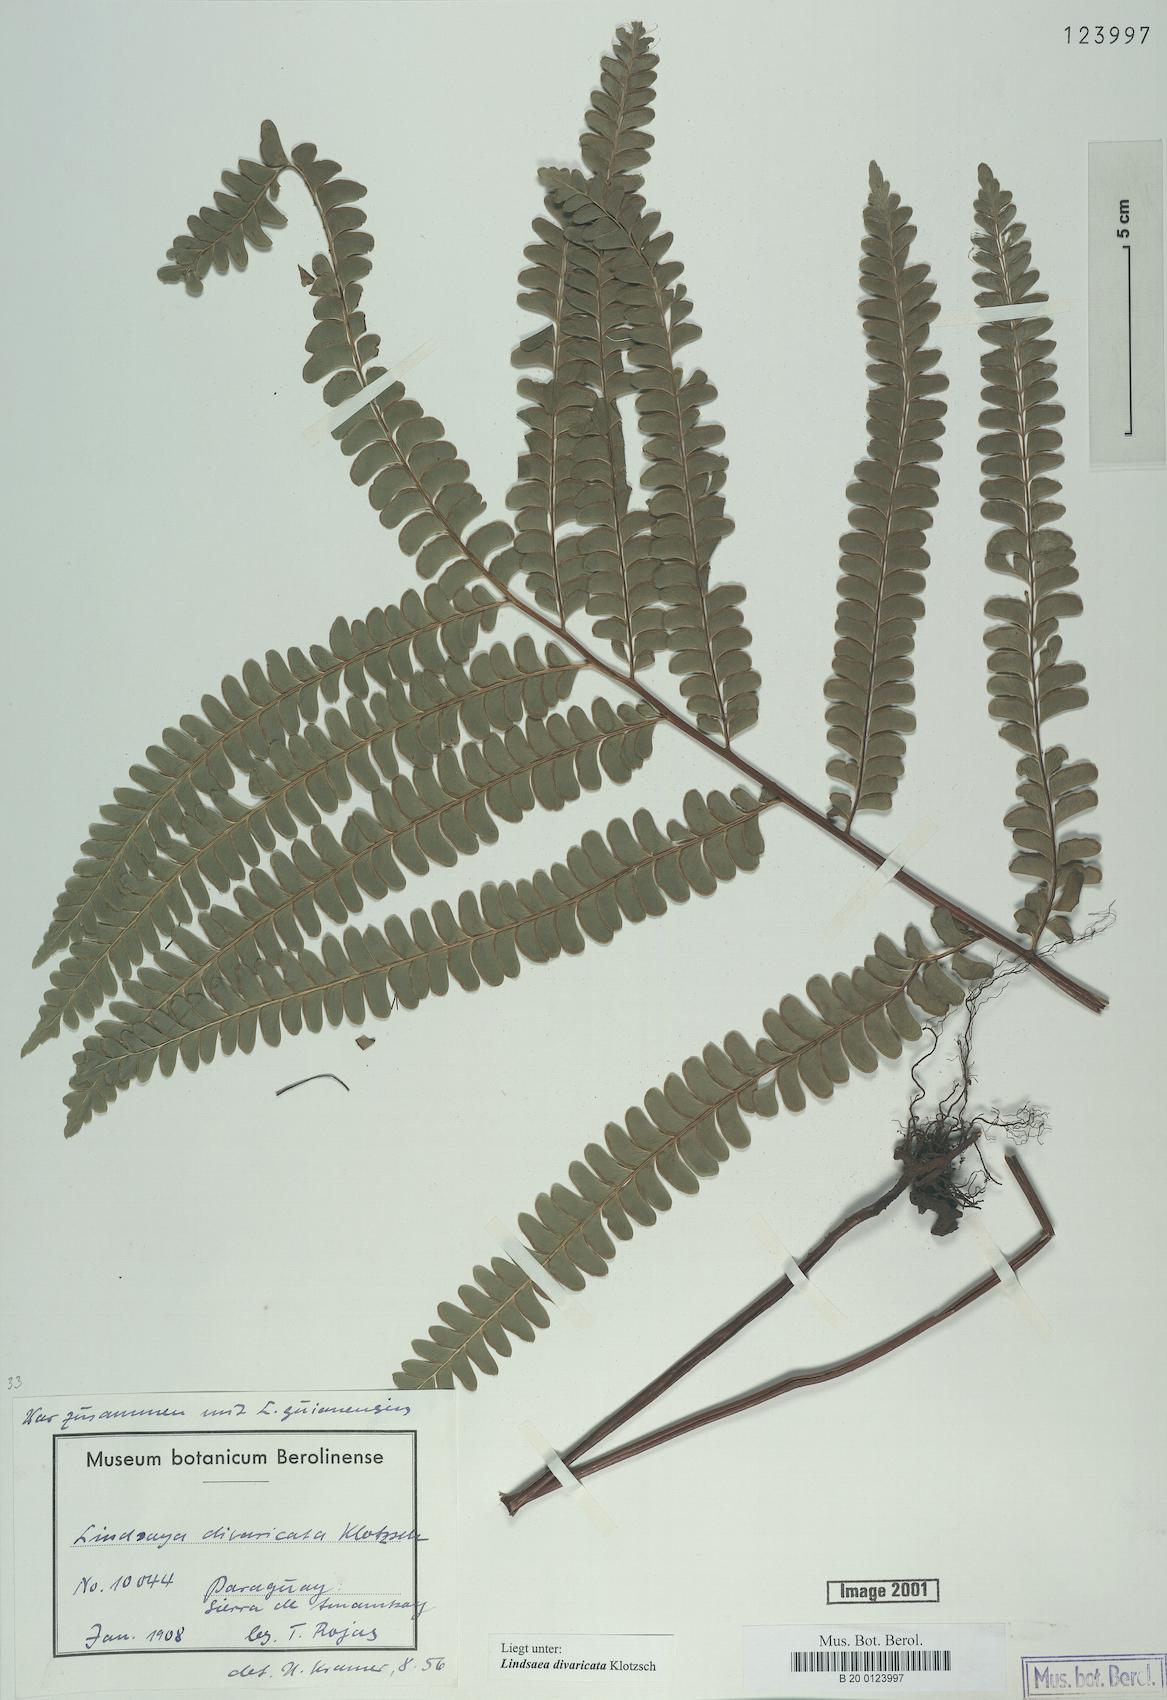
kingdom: Plantae
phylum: Tracheophyta
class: Polypodiopsida
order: Polypodiales
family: Lindsaeaceae
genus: Lindsaea
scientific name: Lindsaea divaricata
